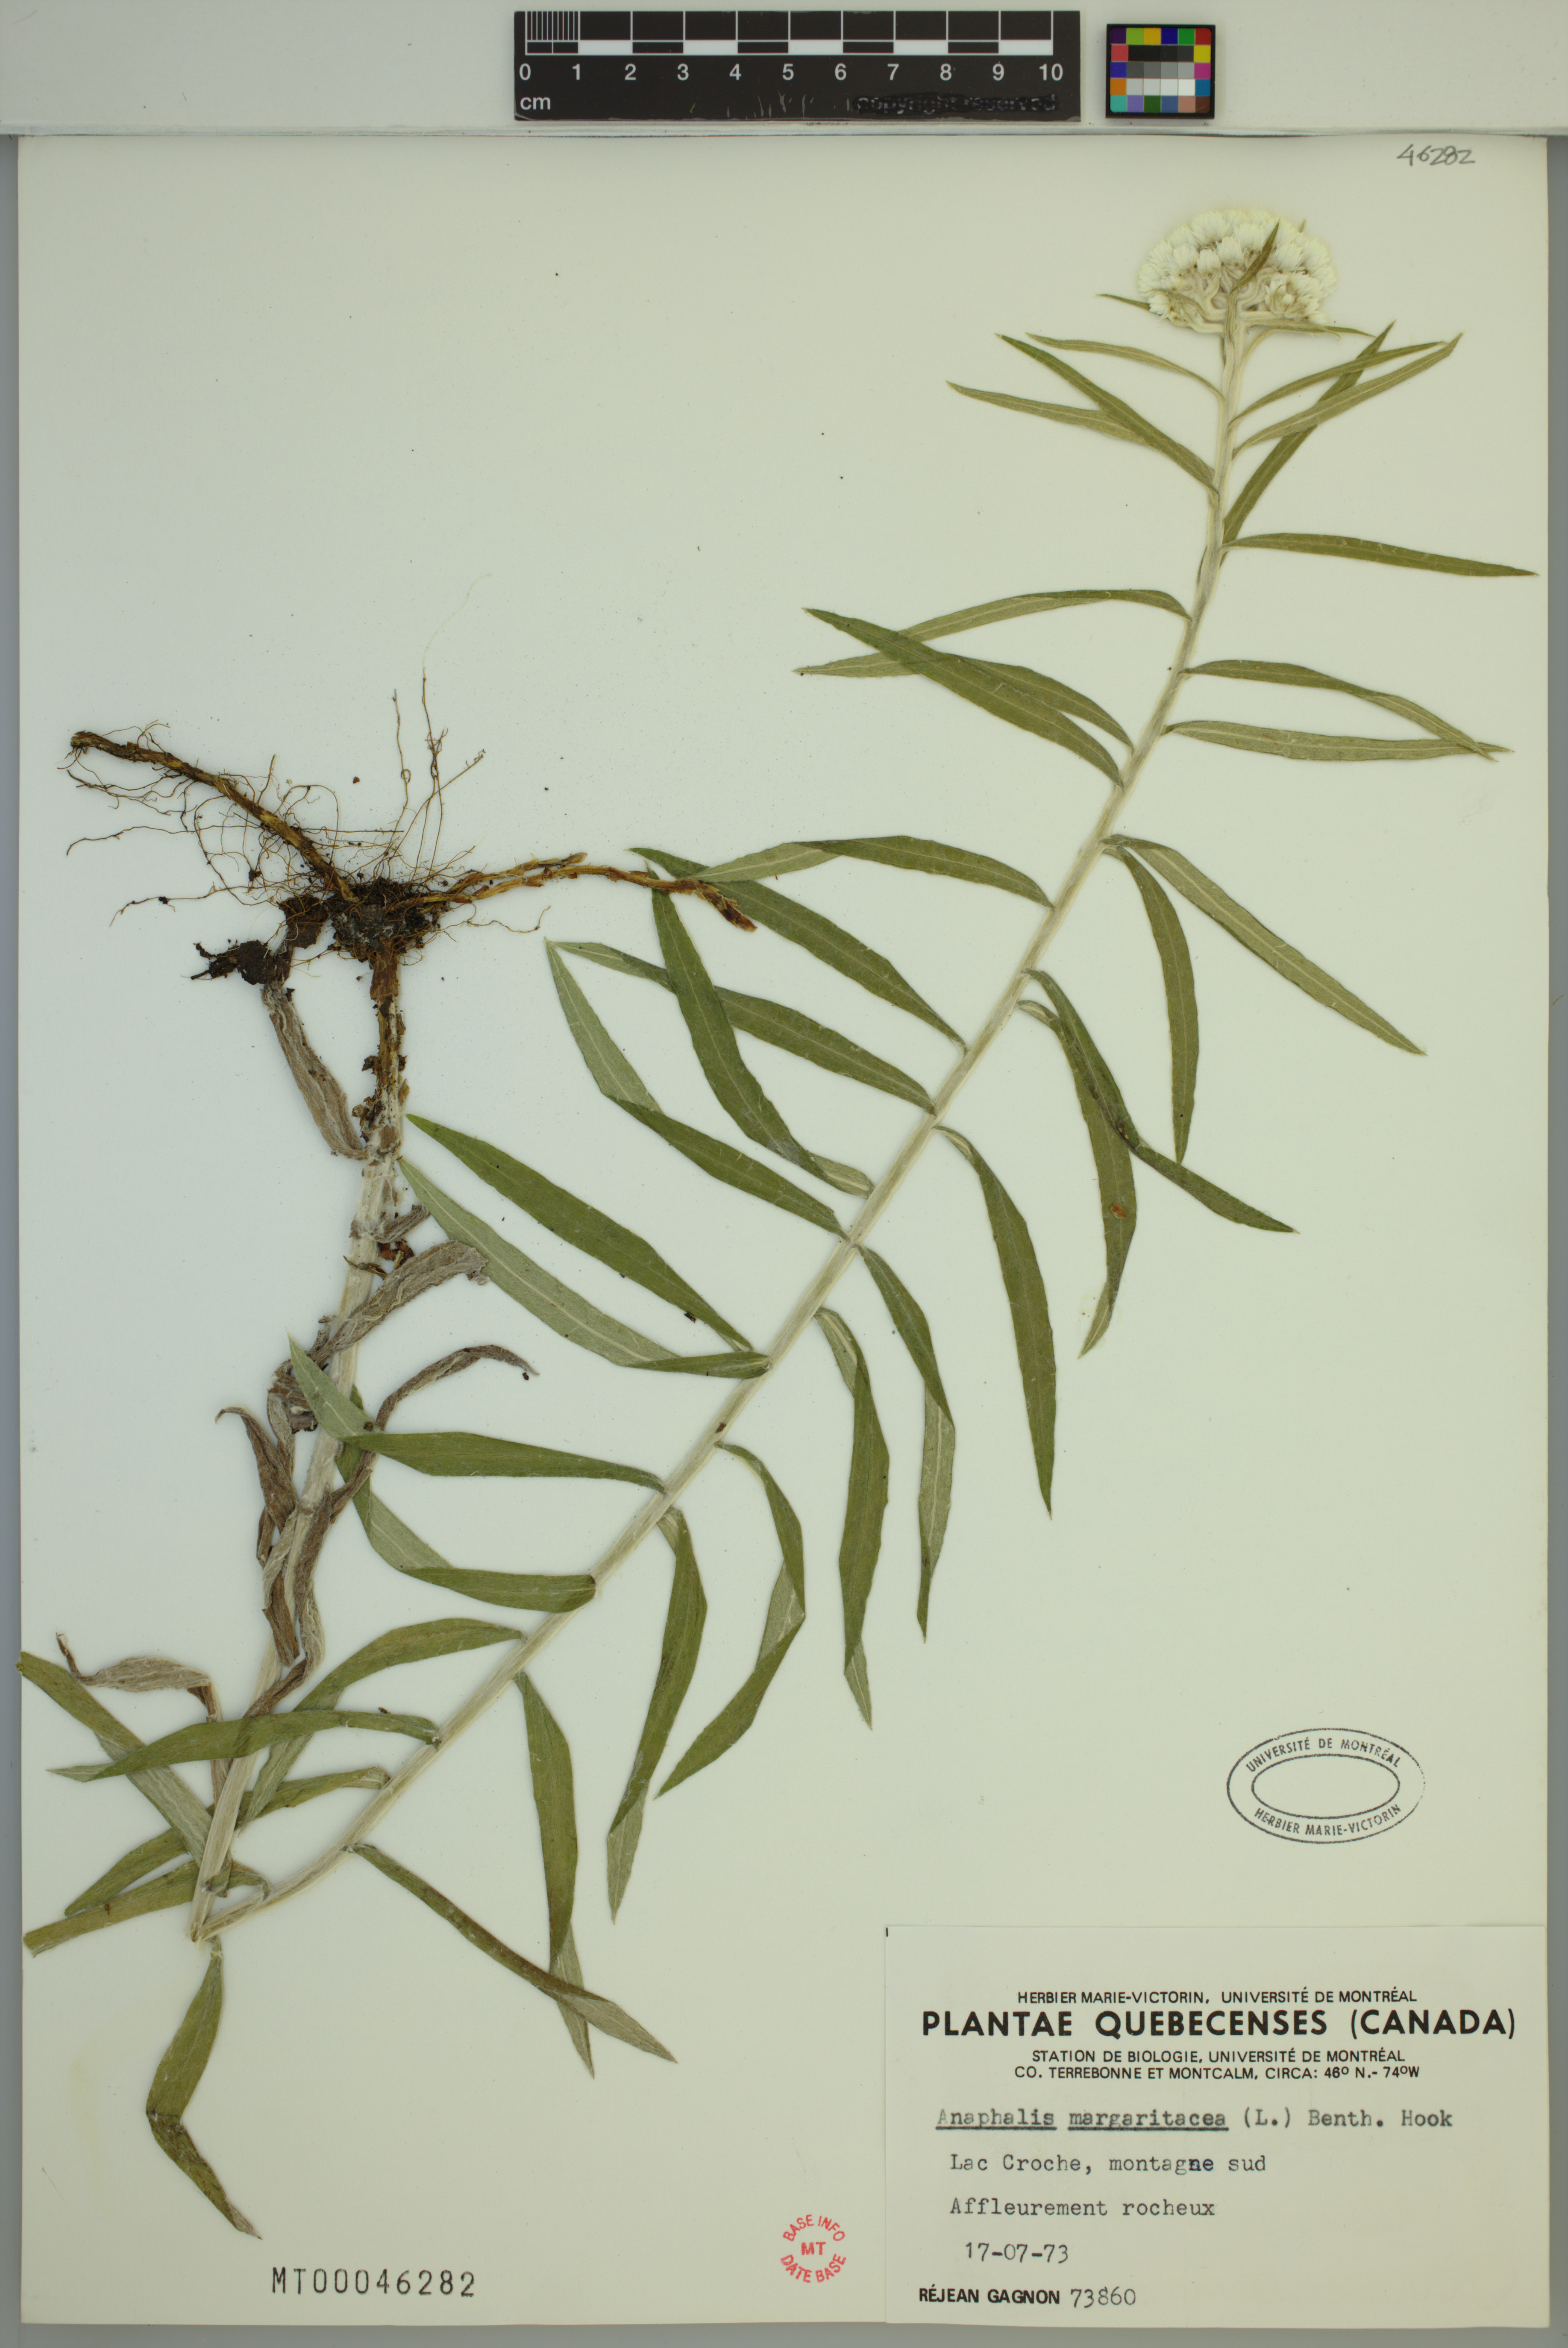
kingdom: Plantae
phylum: Tracheophyta
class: Magnoliopsida
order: Asterales
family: Asteraceae
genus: Anaphalis
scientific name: Anaphalis margaritacea
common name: Pearly everlasting
